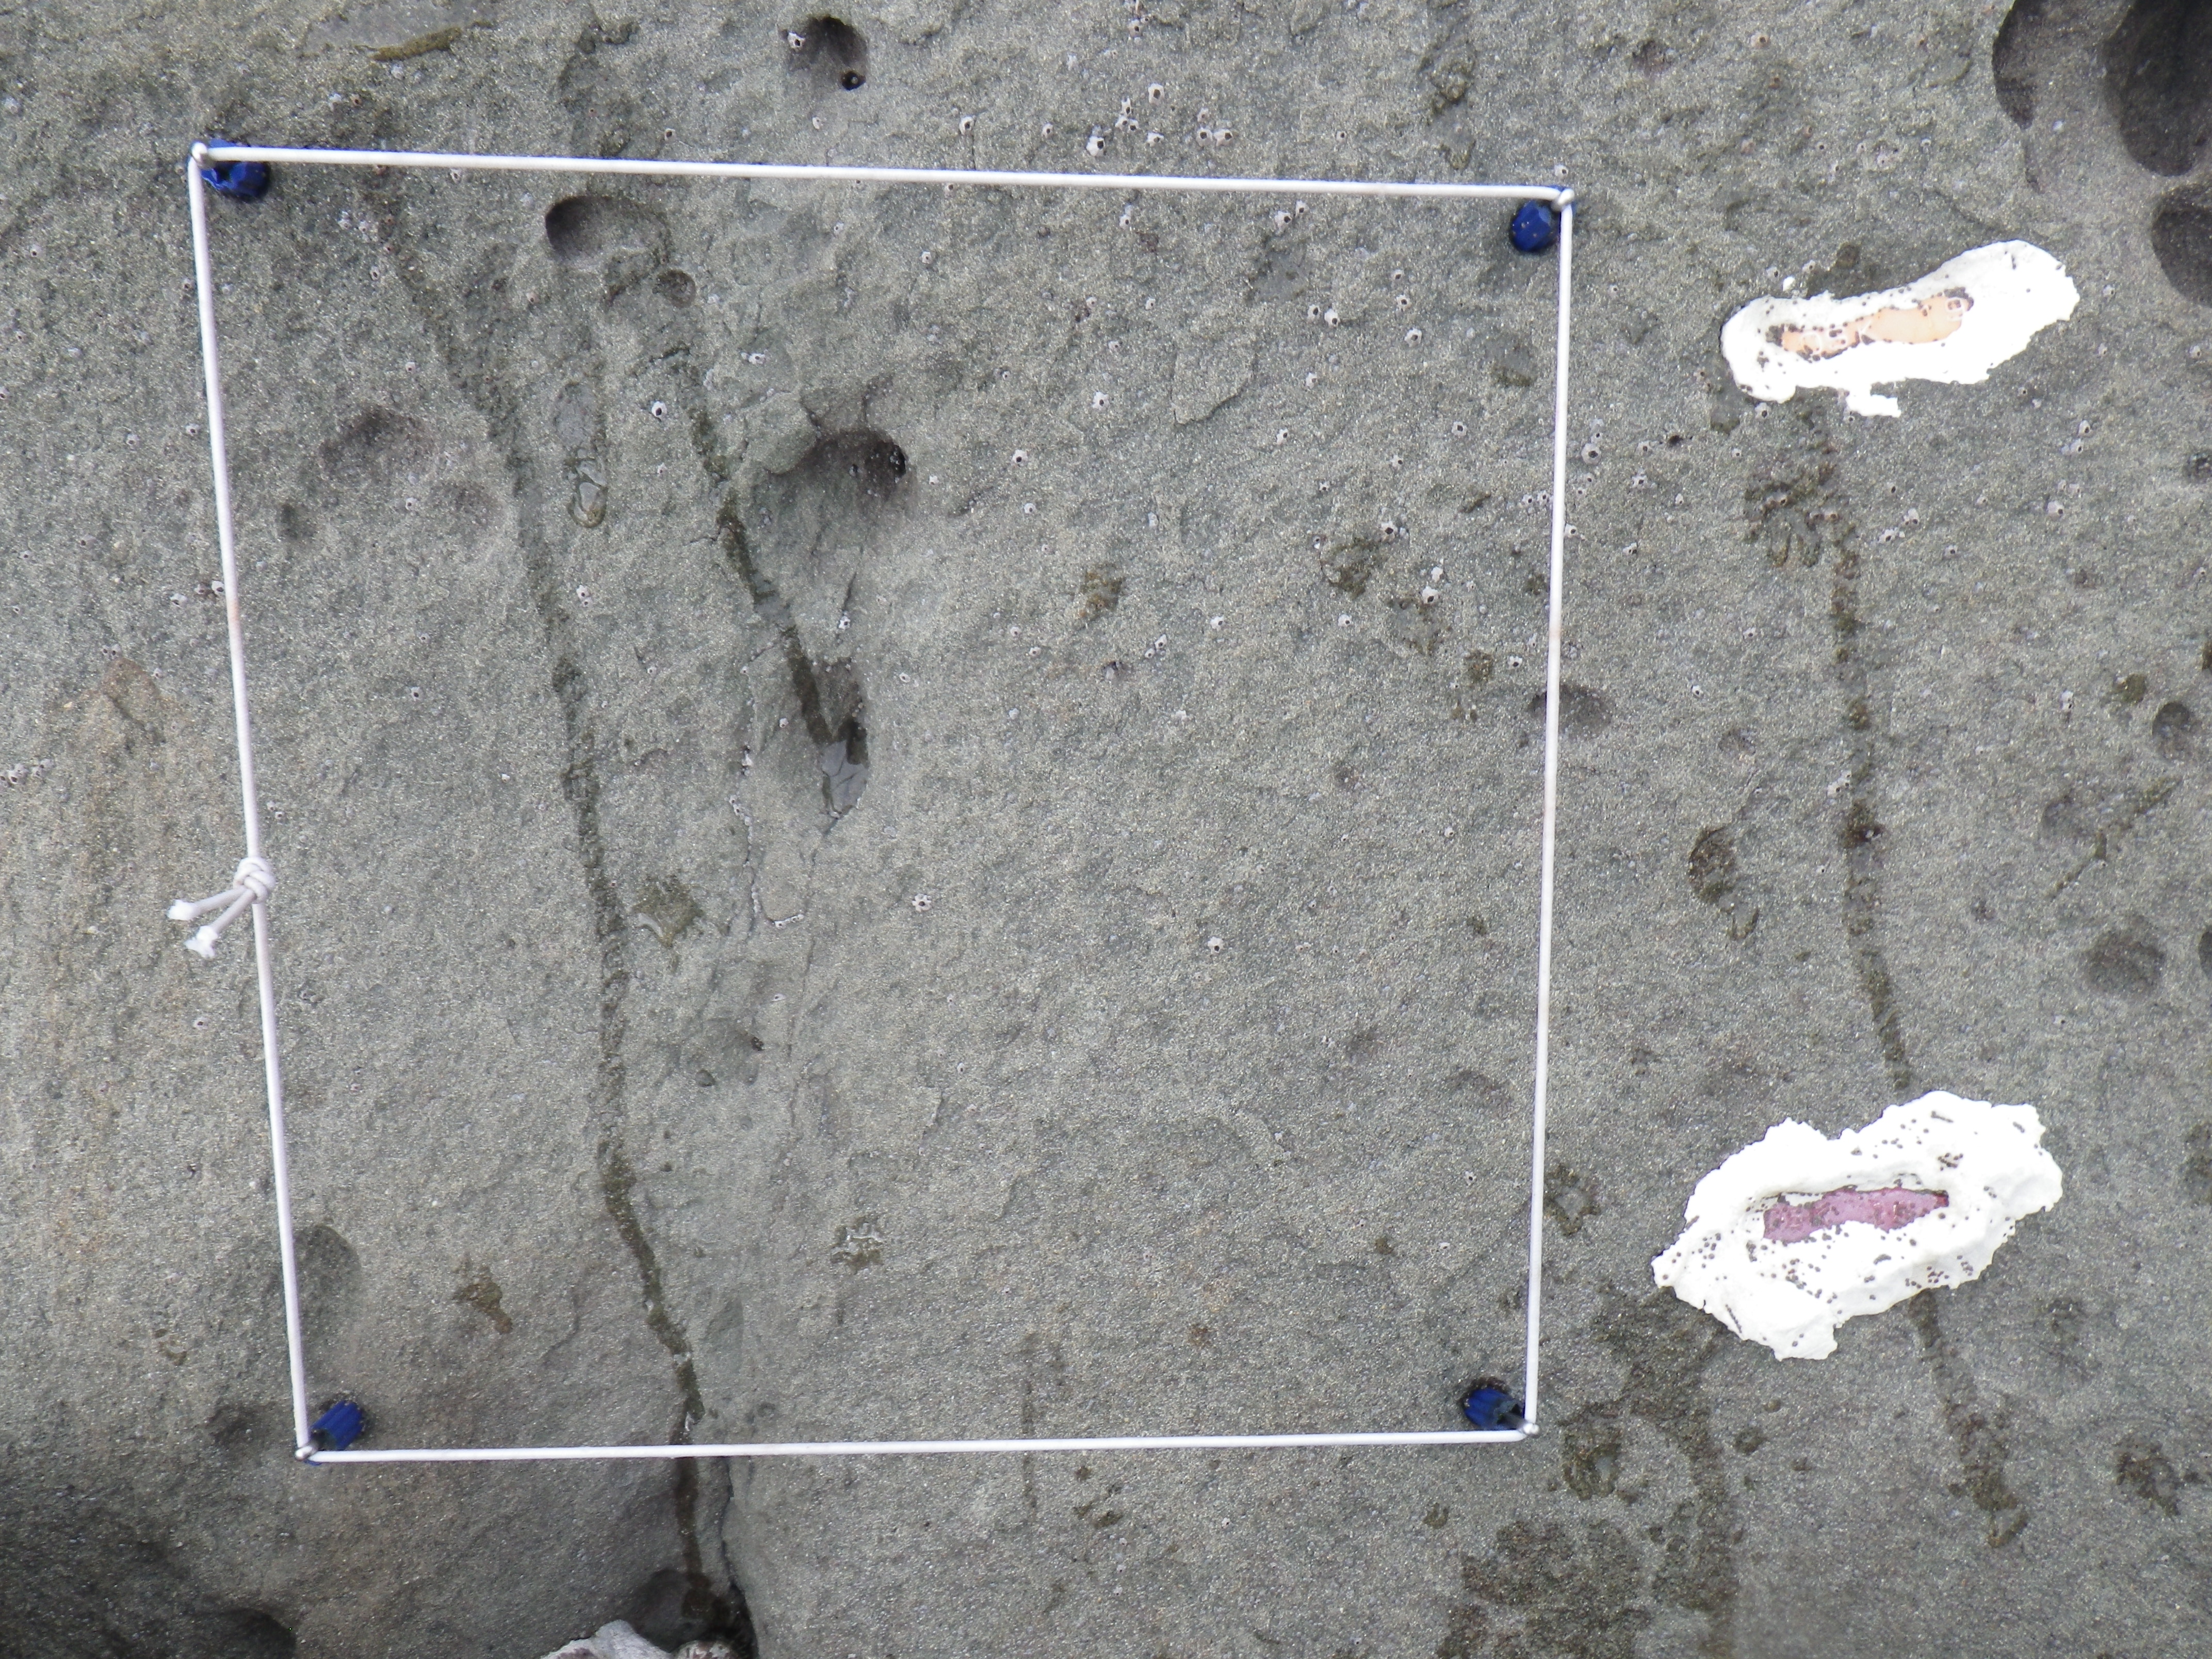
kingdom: Animalia
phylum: Arthropoda
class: Maxillopoda
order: Sessilia
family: Chthamalidae
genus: Chthamalus
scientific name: Chthamalus challengeri
